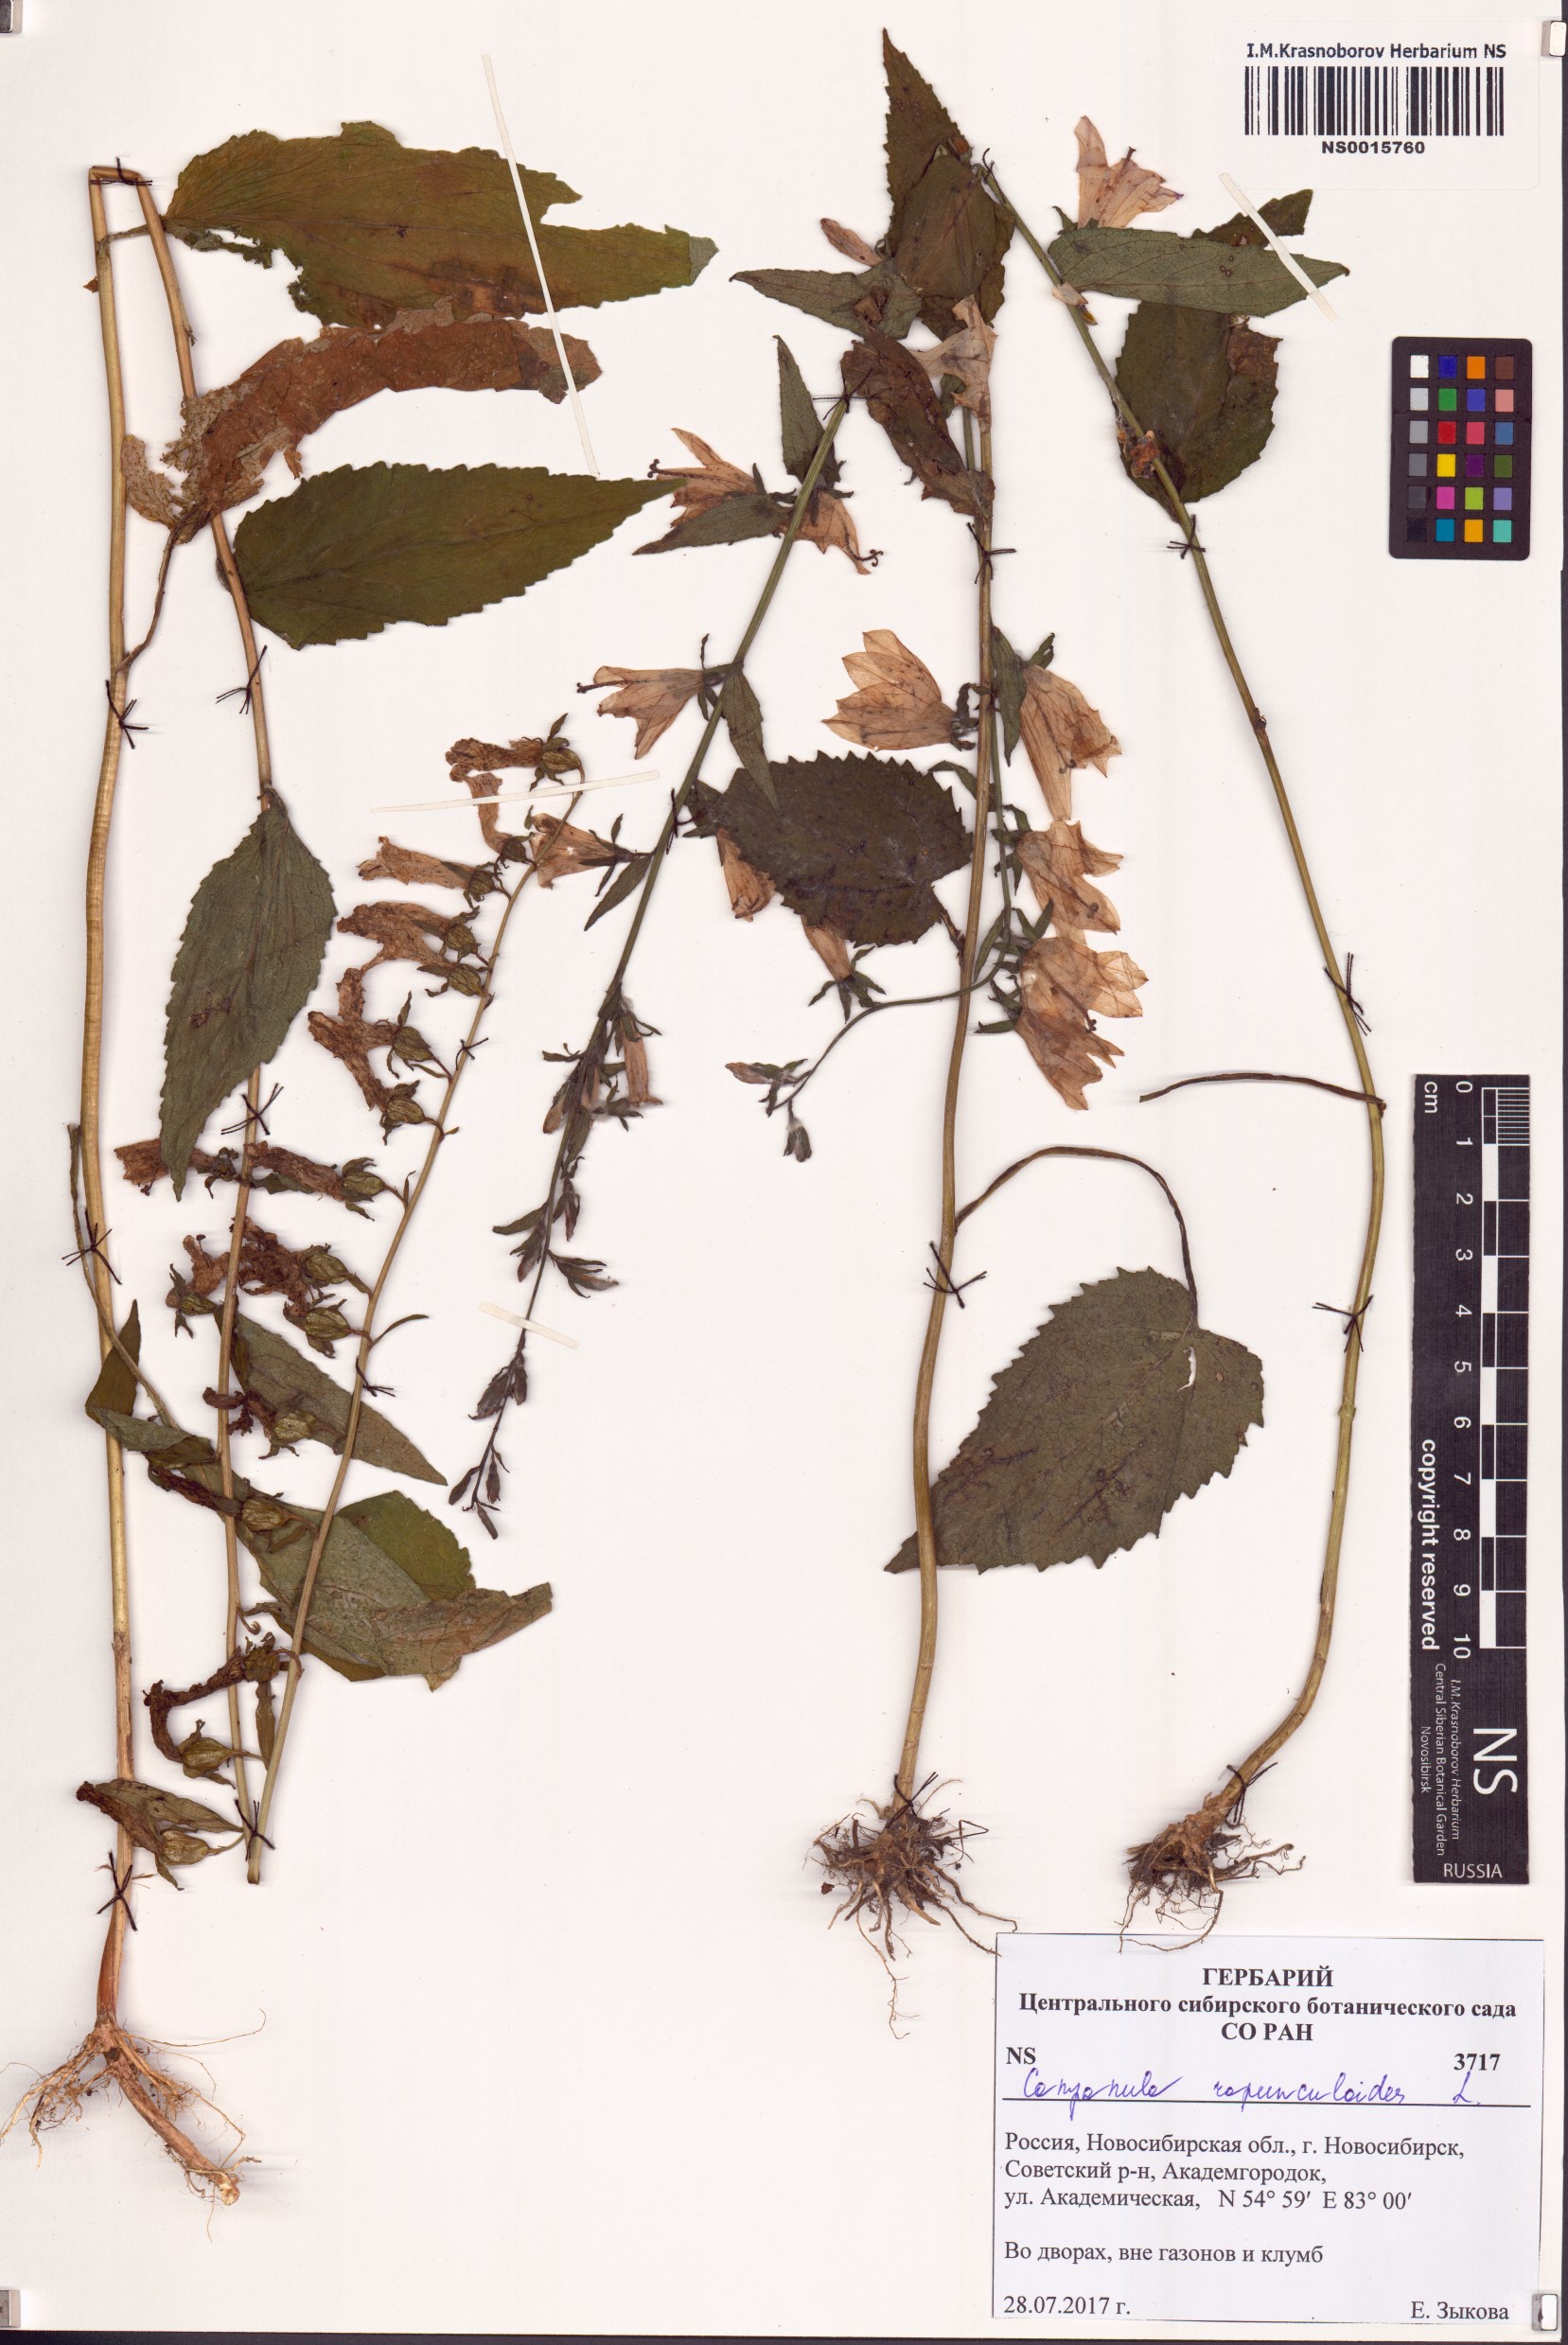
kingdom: Plantae
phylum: Tracheophyta
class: Magnoliopsida
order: Asterales
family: Campanulaceae
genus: Campanula
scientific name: Campanula rapunculoides
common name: Creeping bellflower
